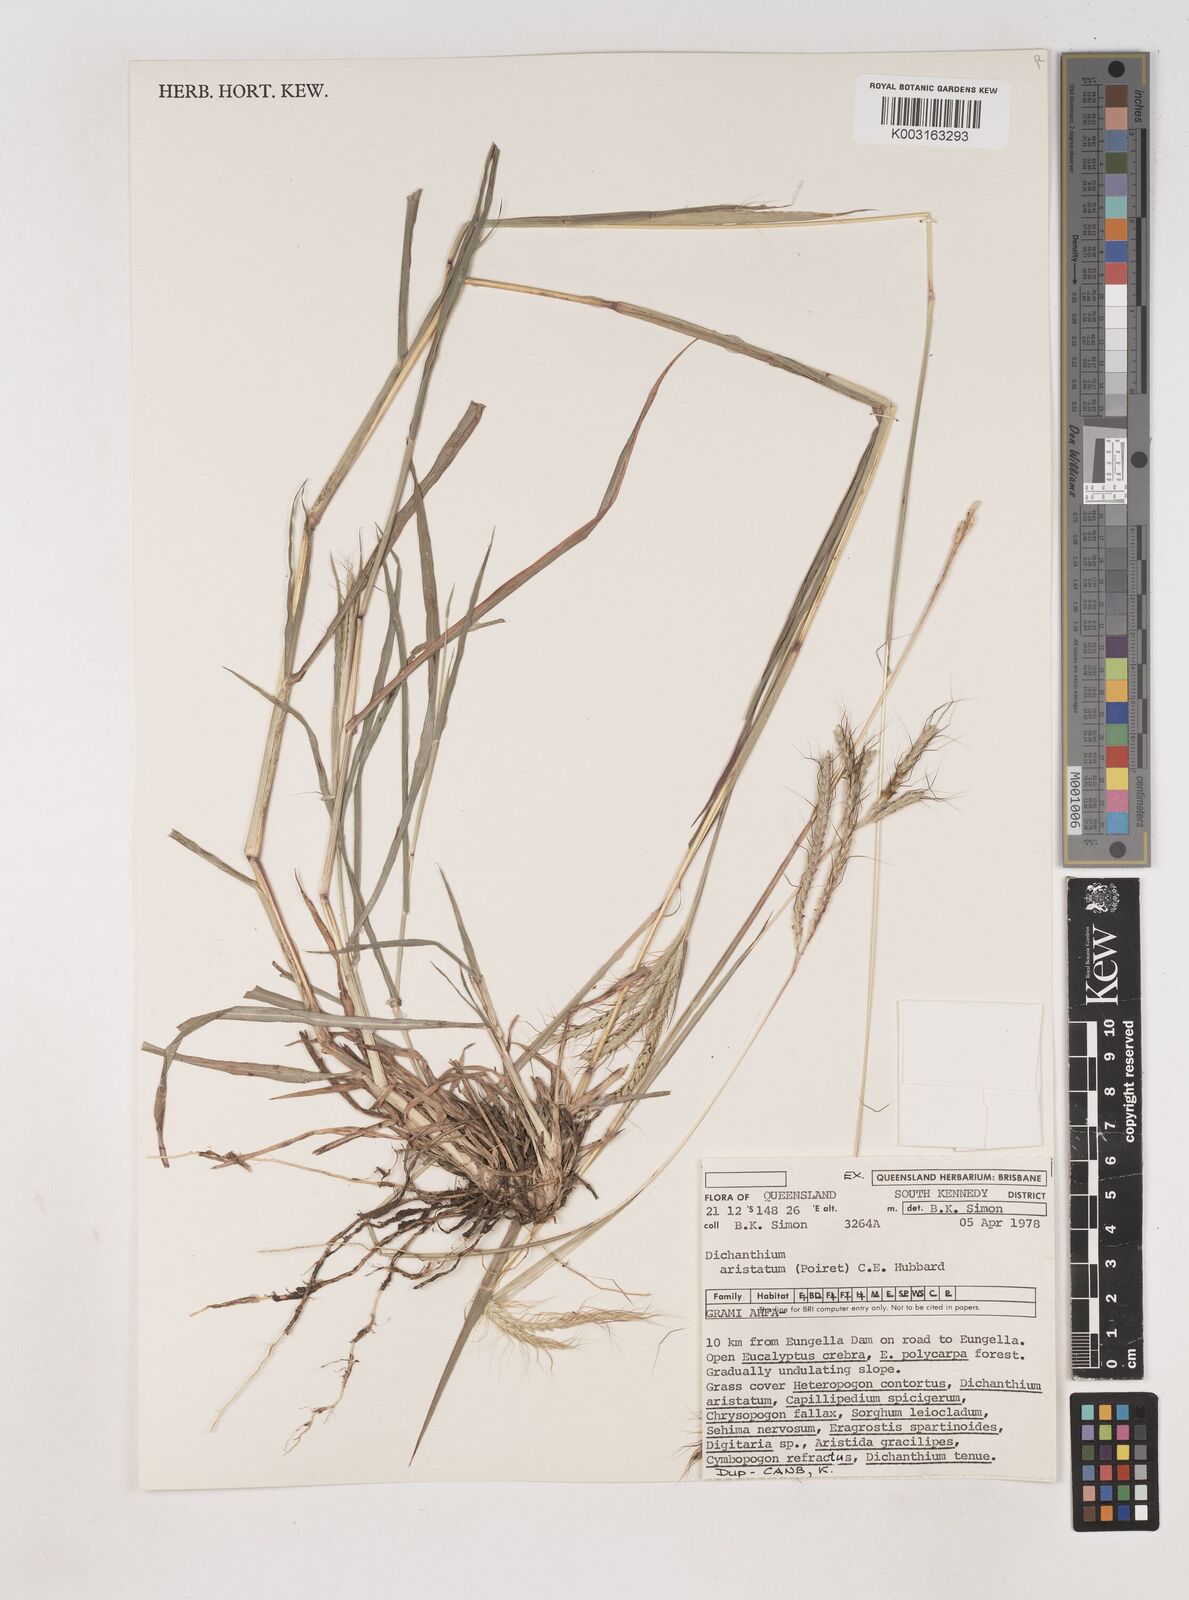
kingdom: Plantae
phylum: Tracheophyta
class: Liliopsida
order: Poales
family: Poaceae
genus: Dichanthium
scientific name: Dichanthium aristatum
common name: Angleton bluestem
